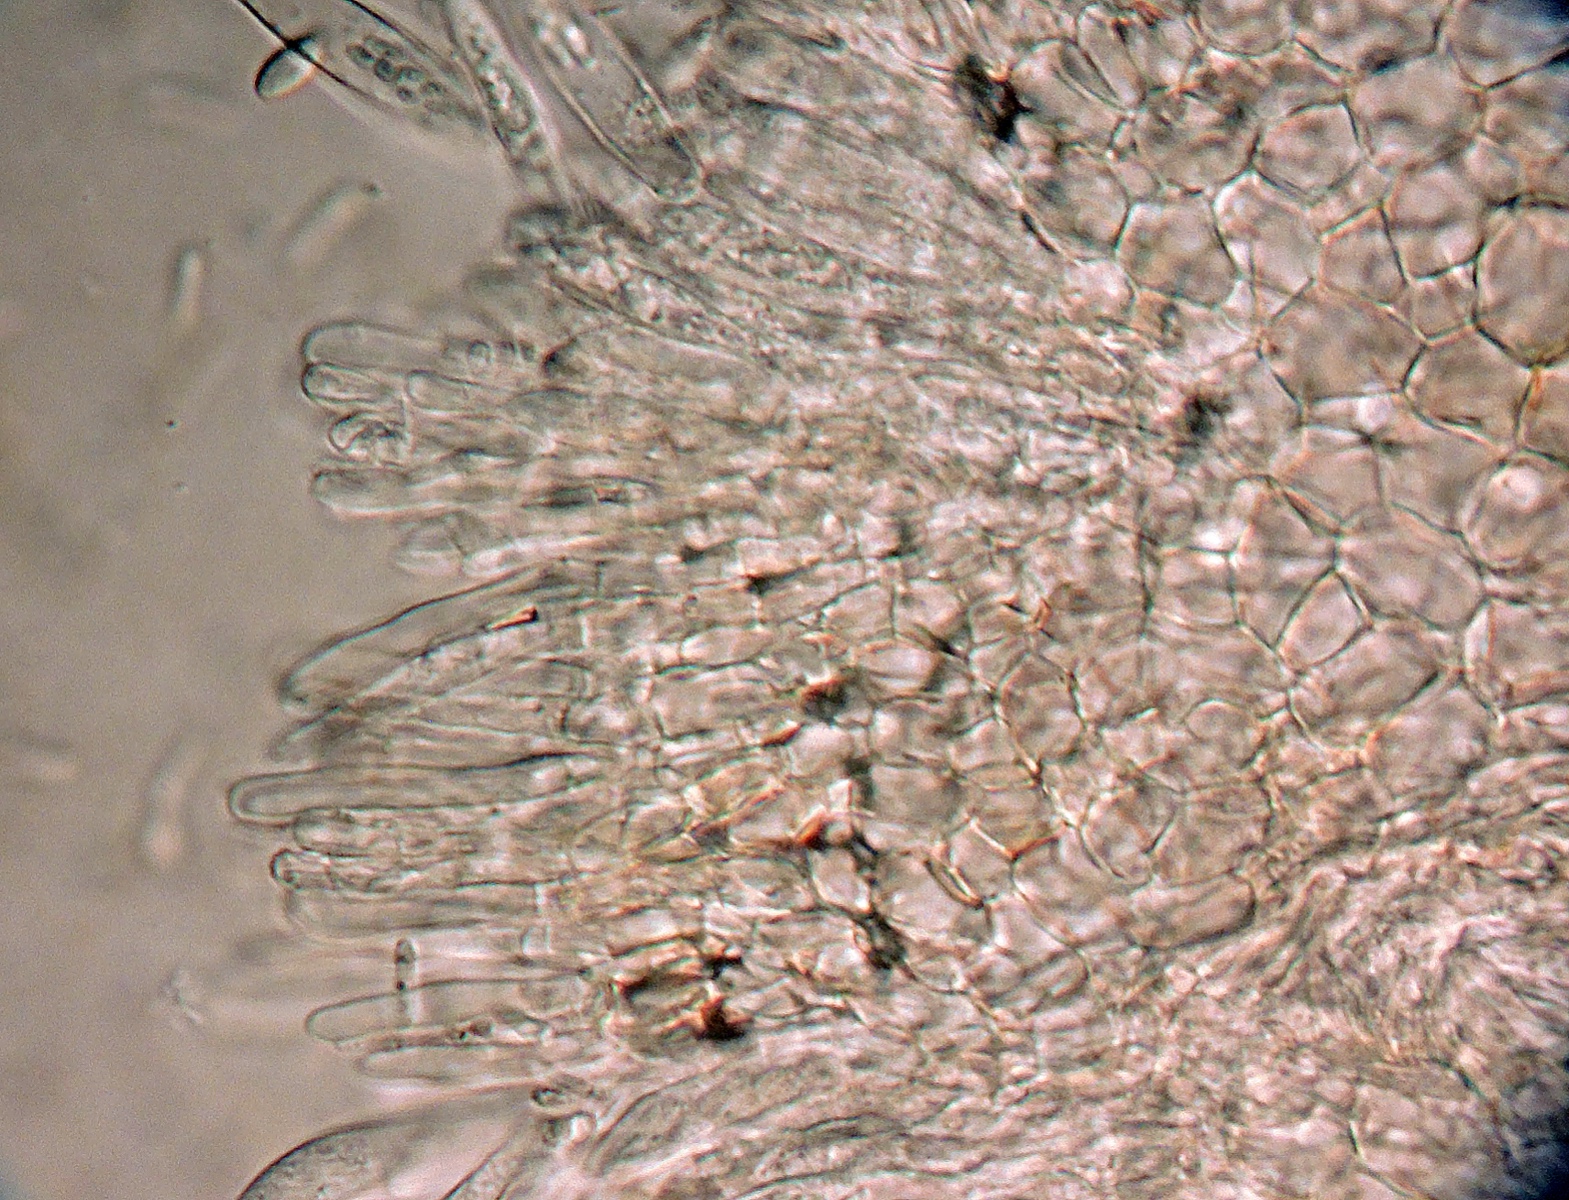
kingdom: Fungi
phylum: Ascomycota
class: Leotiomycetes
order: Helotiales
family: Pezizellaceae
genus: Calycina
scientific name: Calycina ellisii
